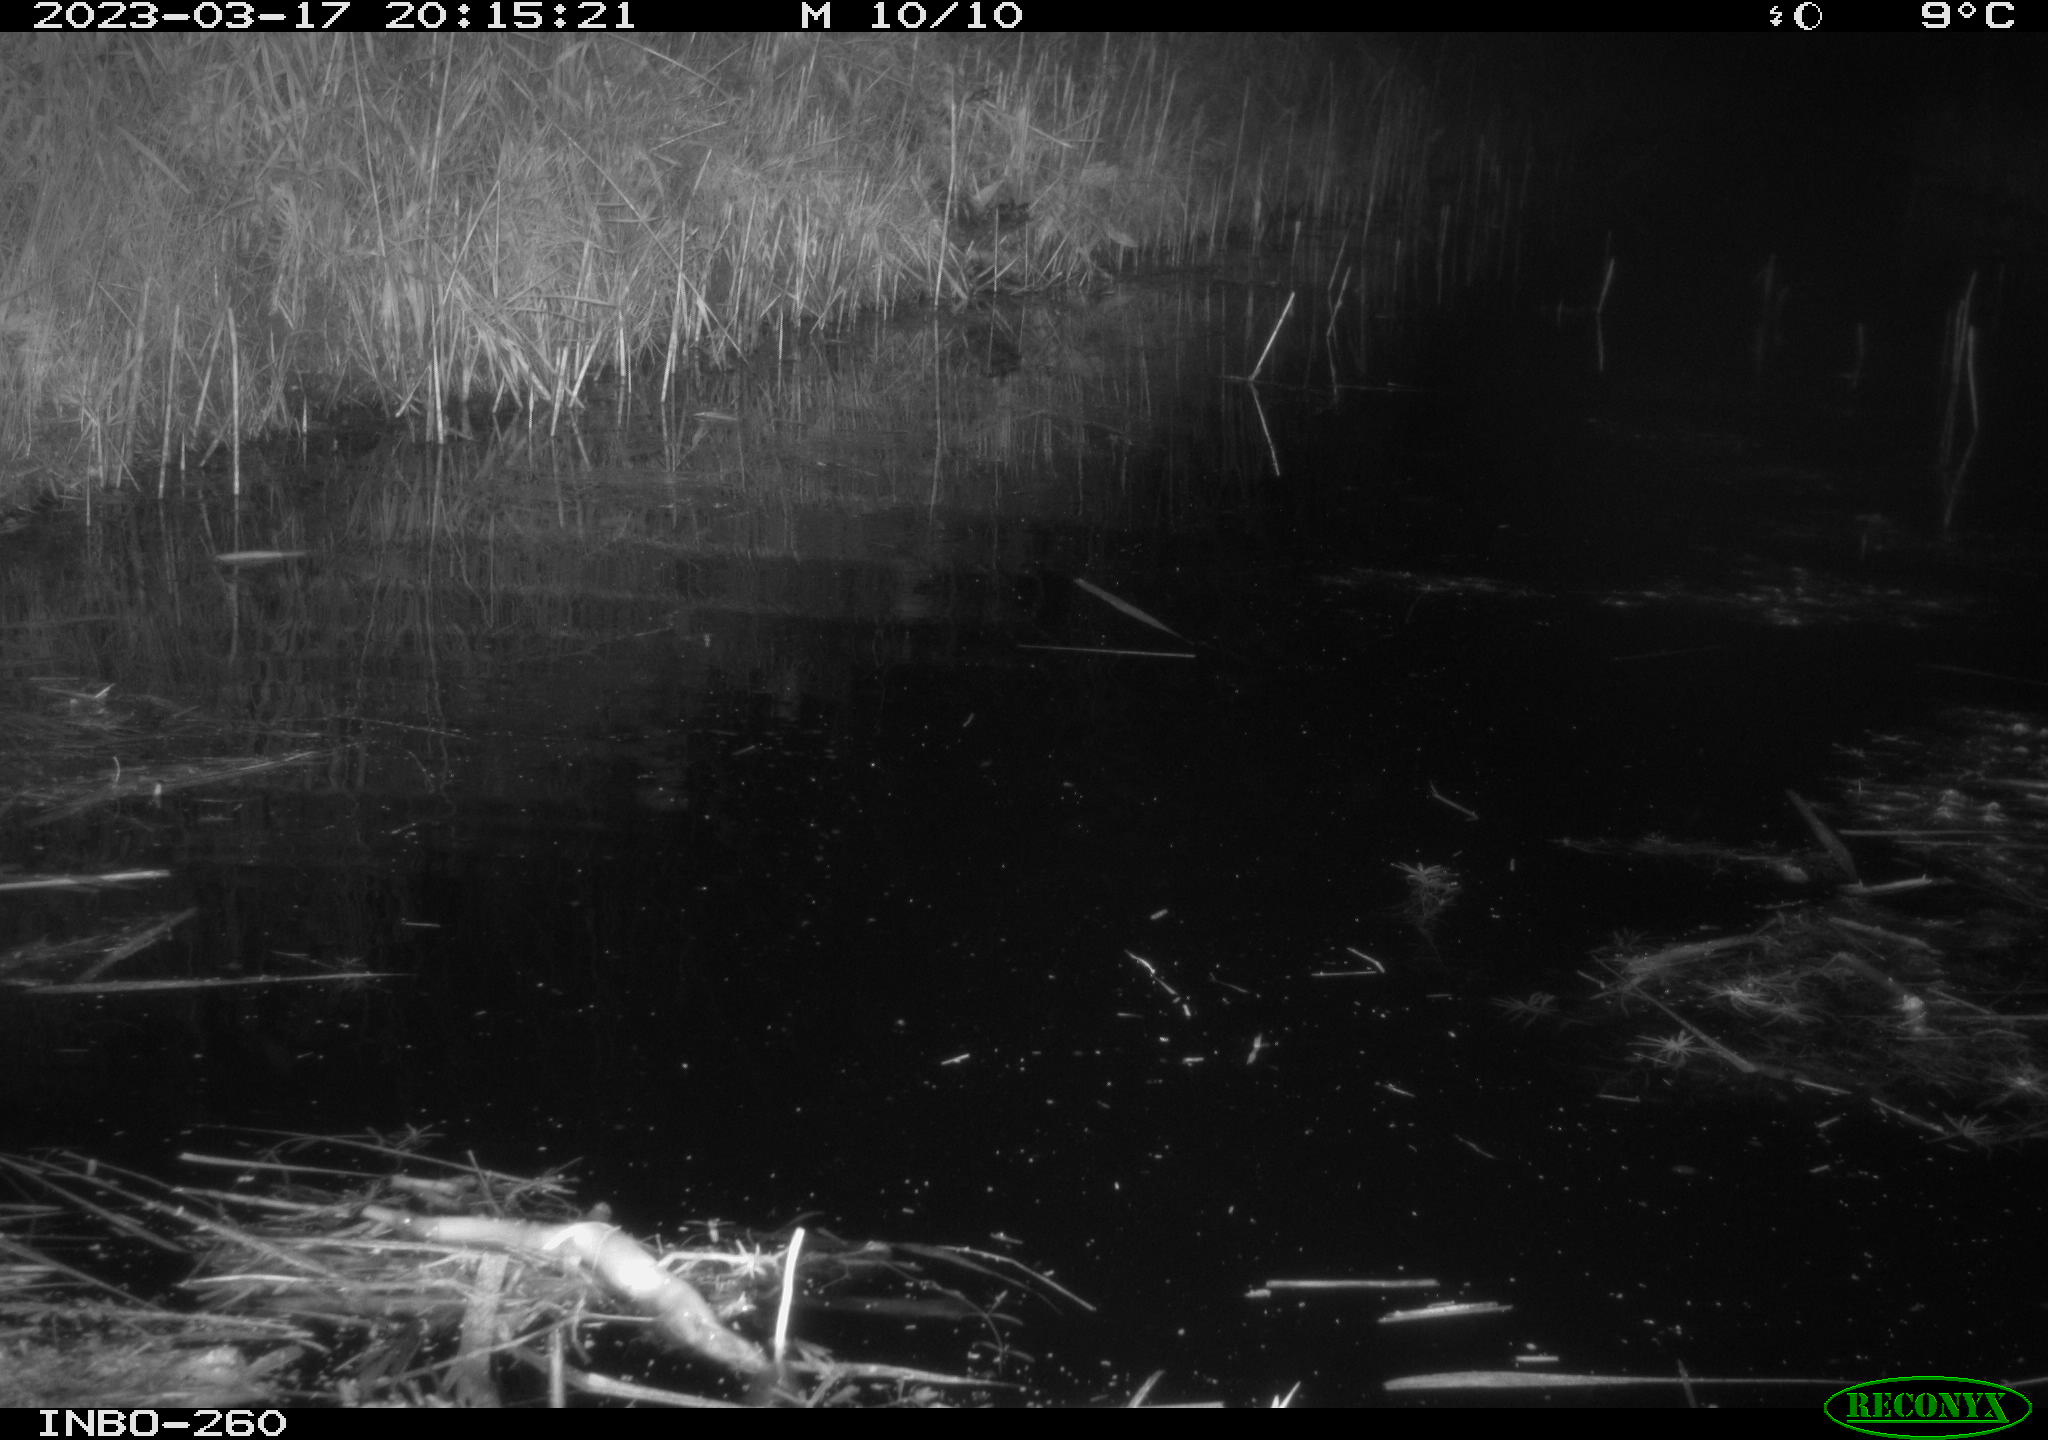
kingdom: Animalia
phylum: Chordata
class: Aves
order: Gruiformes
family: Rallidae
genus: Gallinula
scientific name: Gallinula chloropus
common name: Common moorhen
